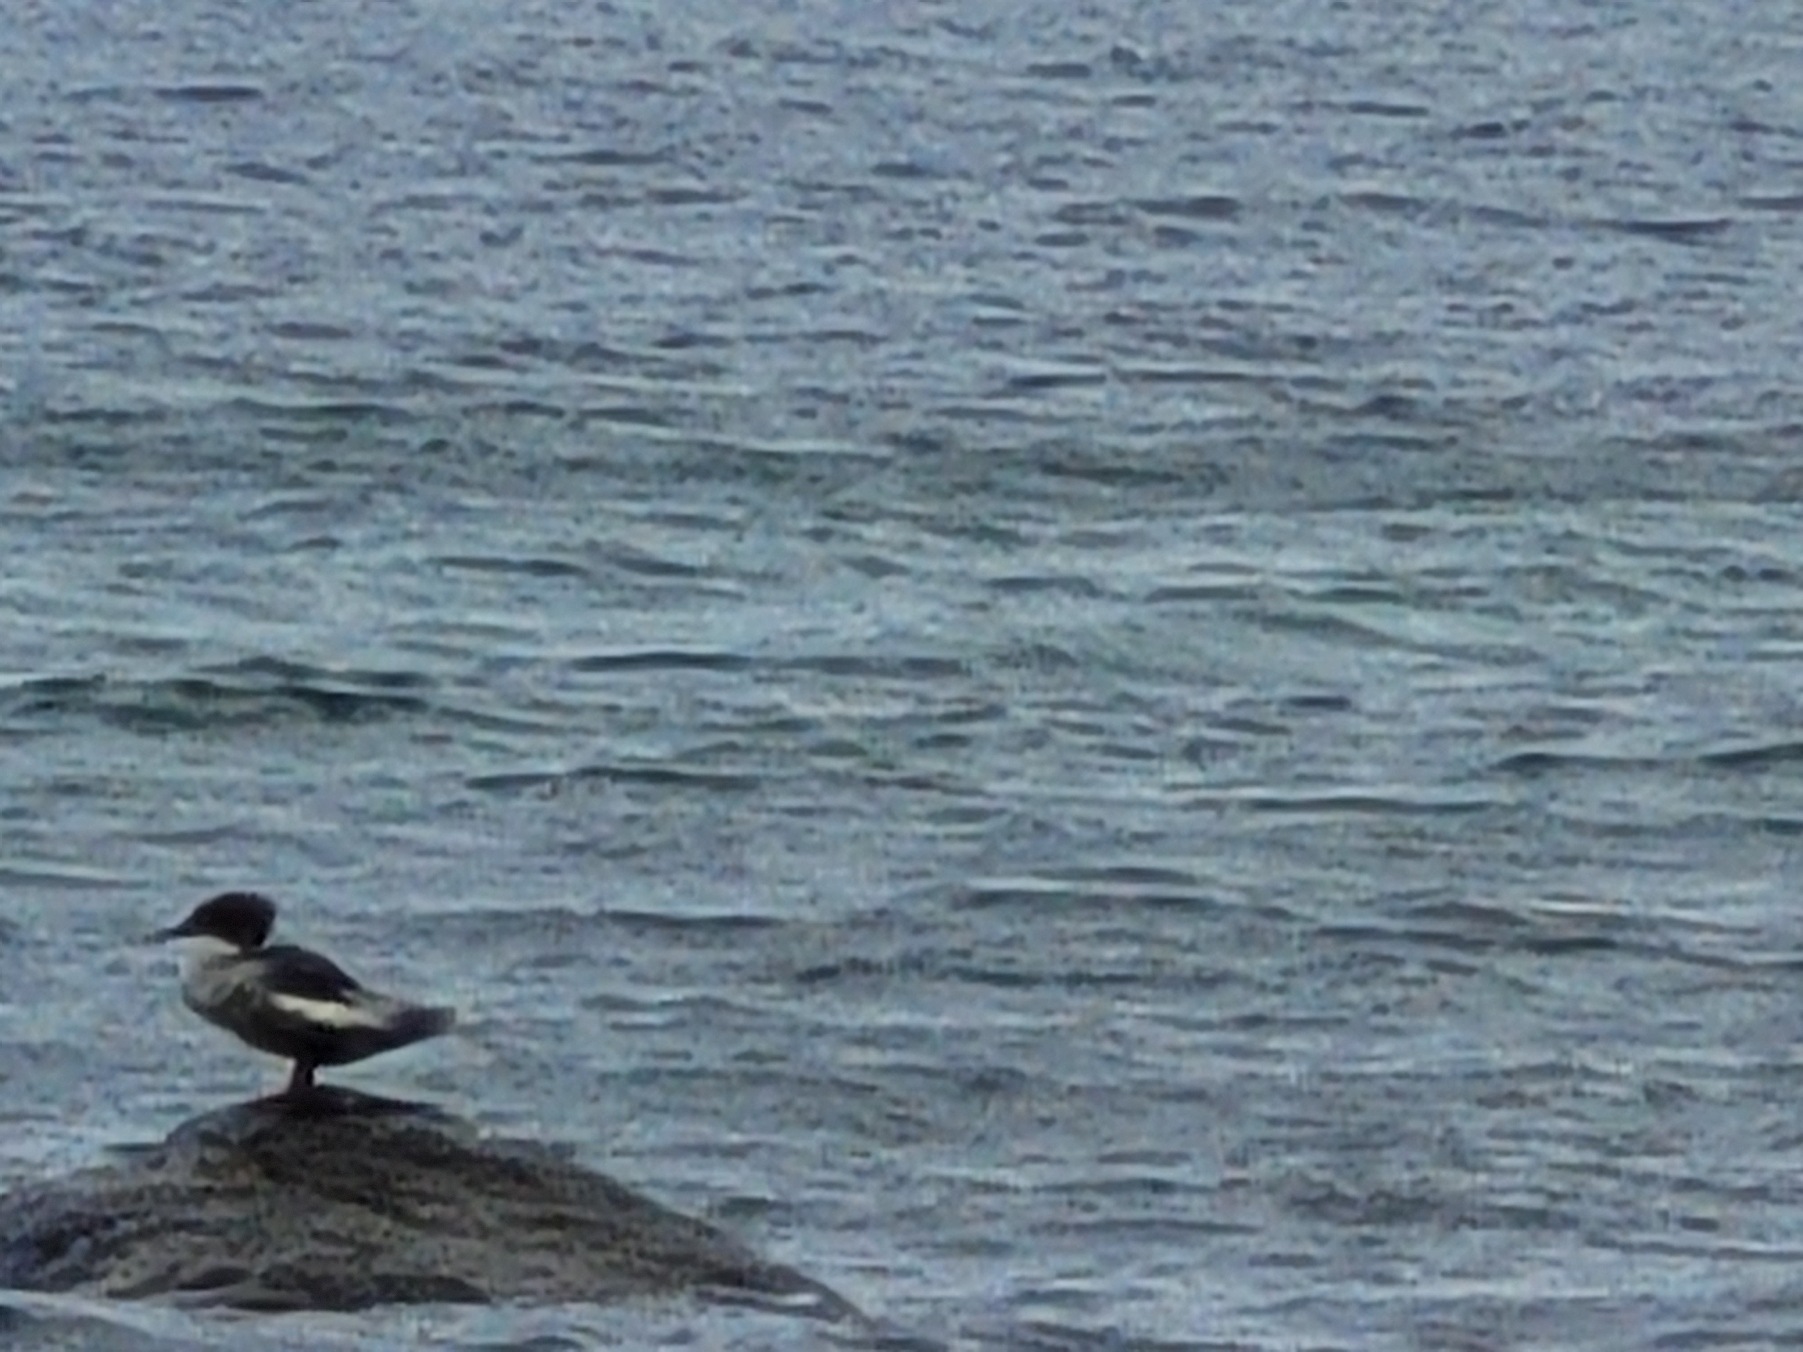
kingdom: Animalia
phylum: Chordata
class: Aves
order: Anseriformes
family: Anatidae
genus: Mergus
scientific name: Mergus serrator
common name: Toppet skallesluger
